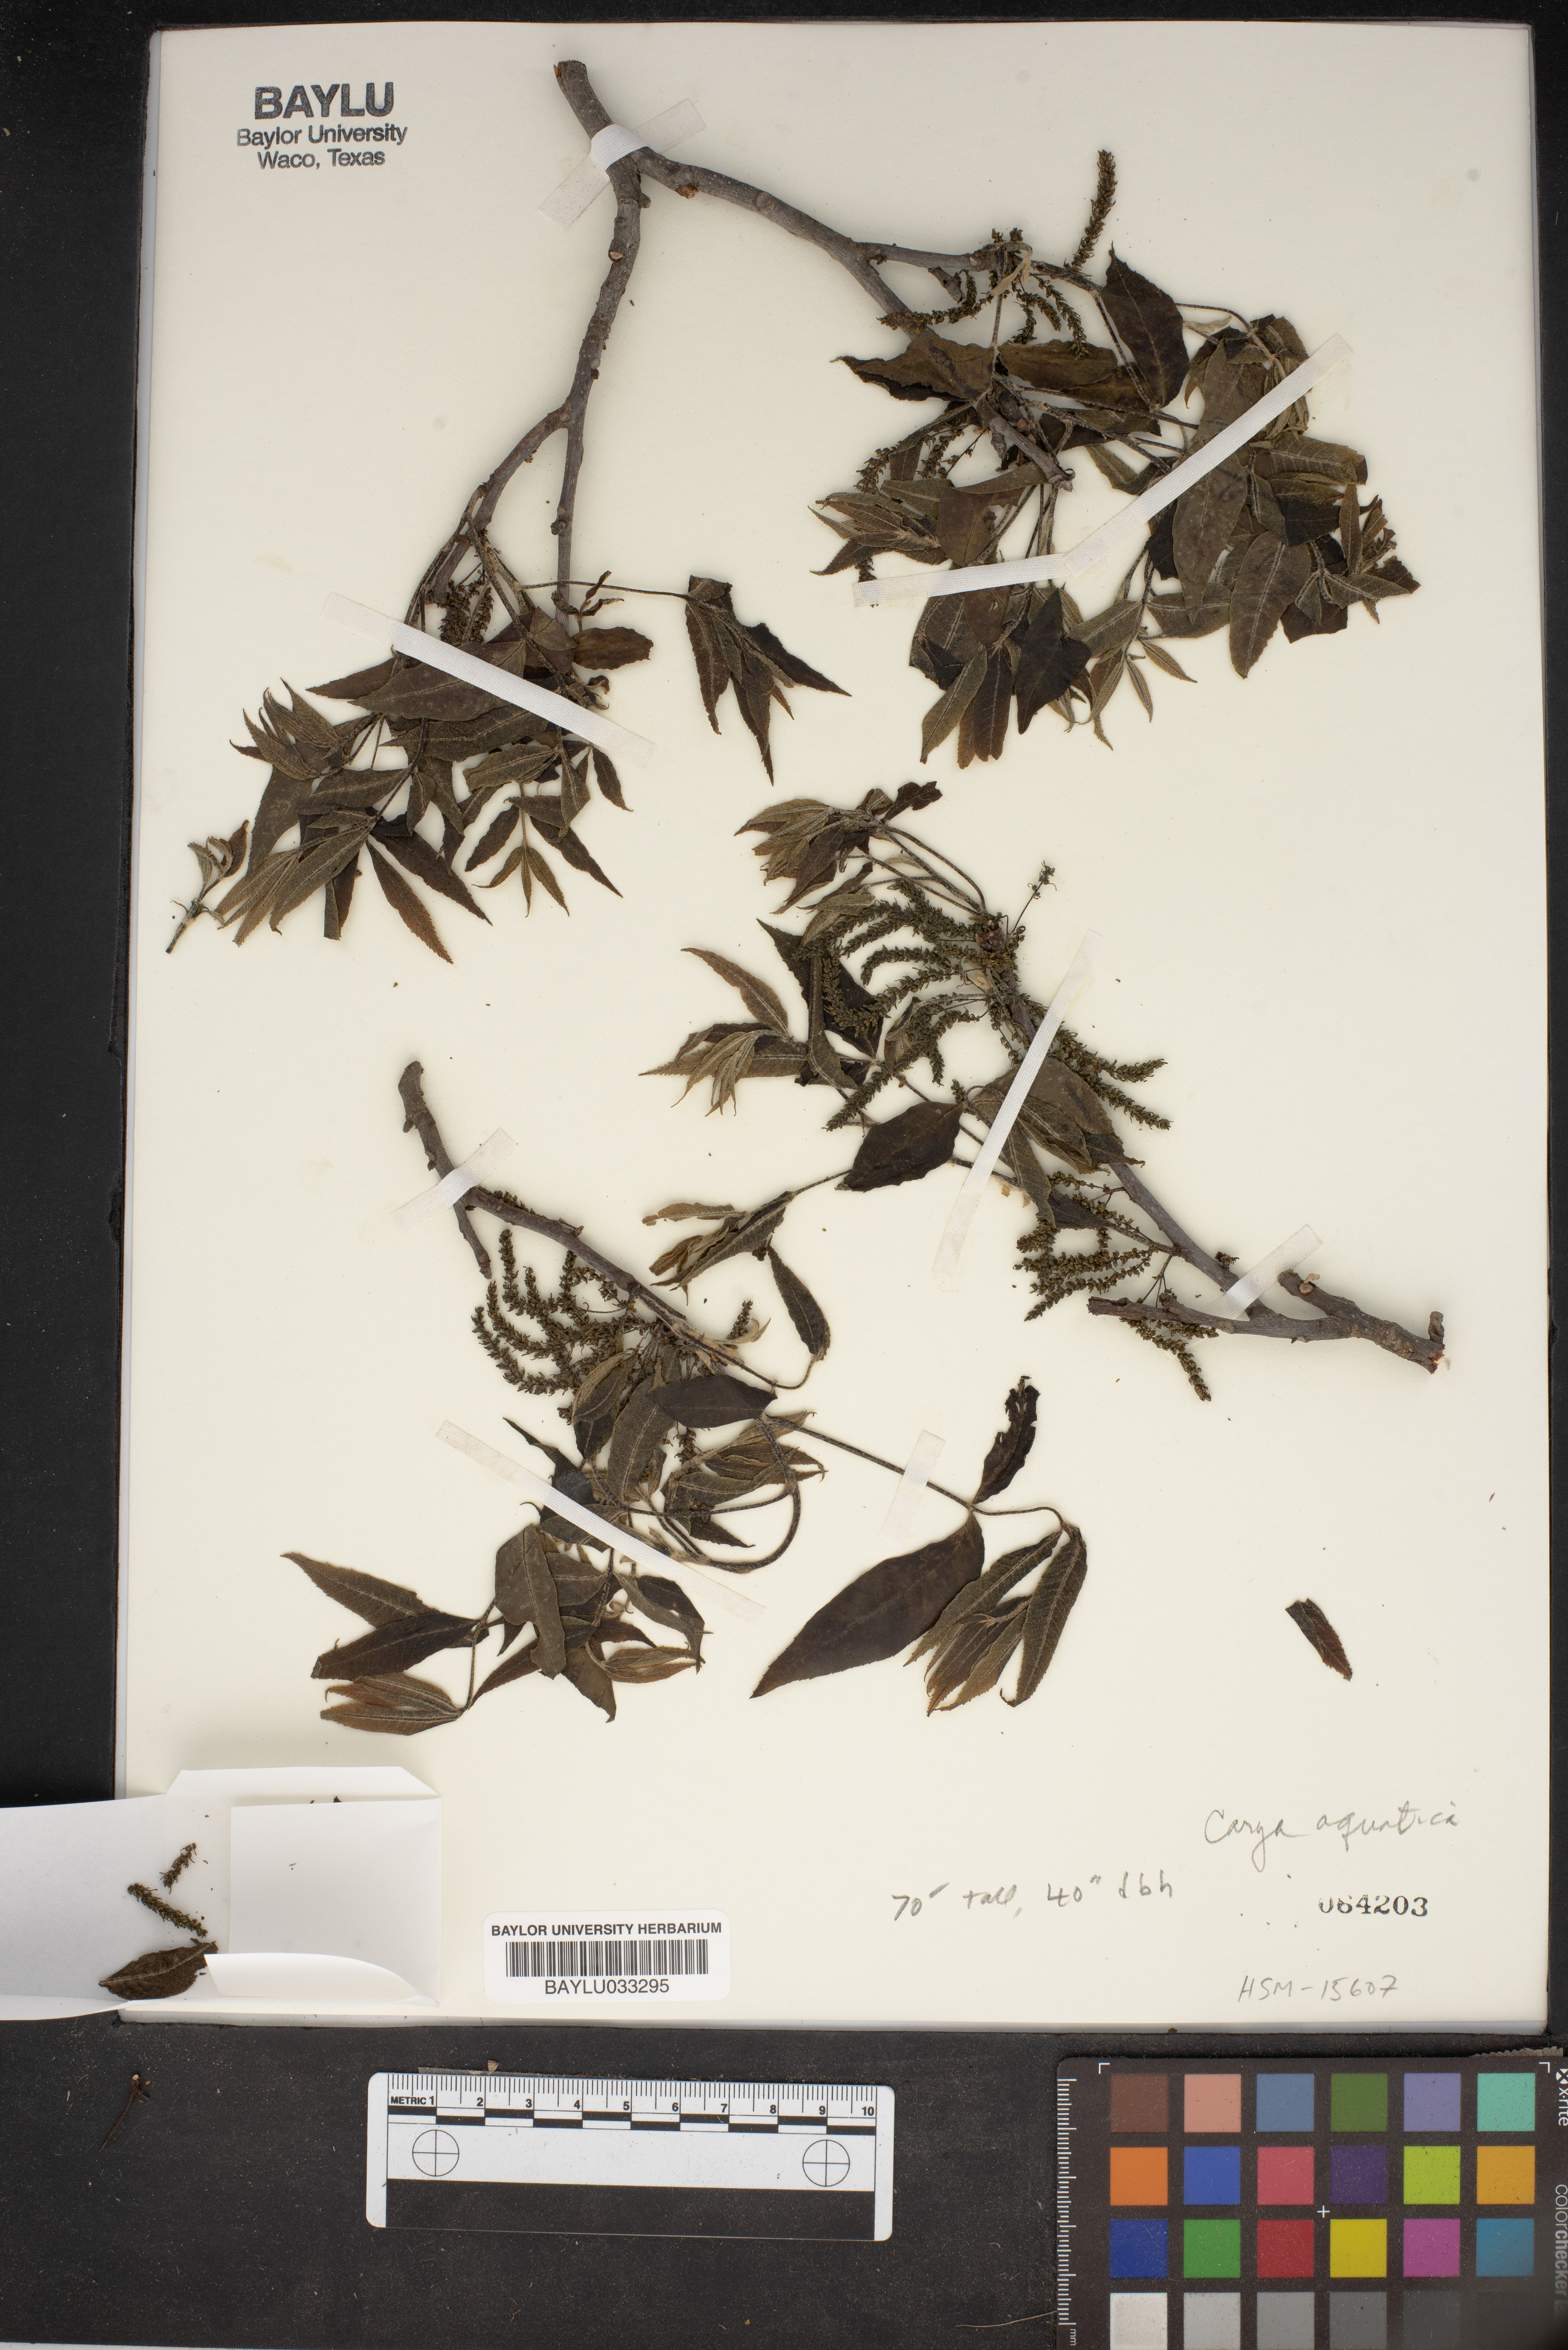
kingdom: Plantae
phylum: Tracheophyta
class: Magnoliopsida
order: Fagales
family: Juglandaceae
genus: Carya
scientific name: Carya aquatica
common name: Water hickory
